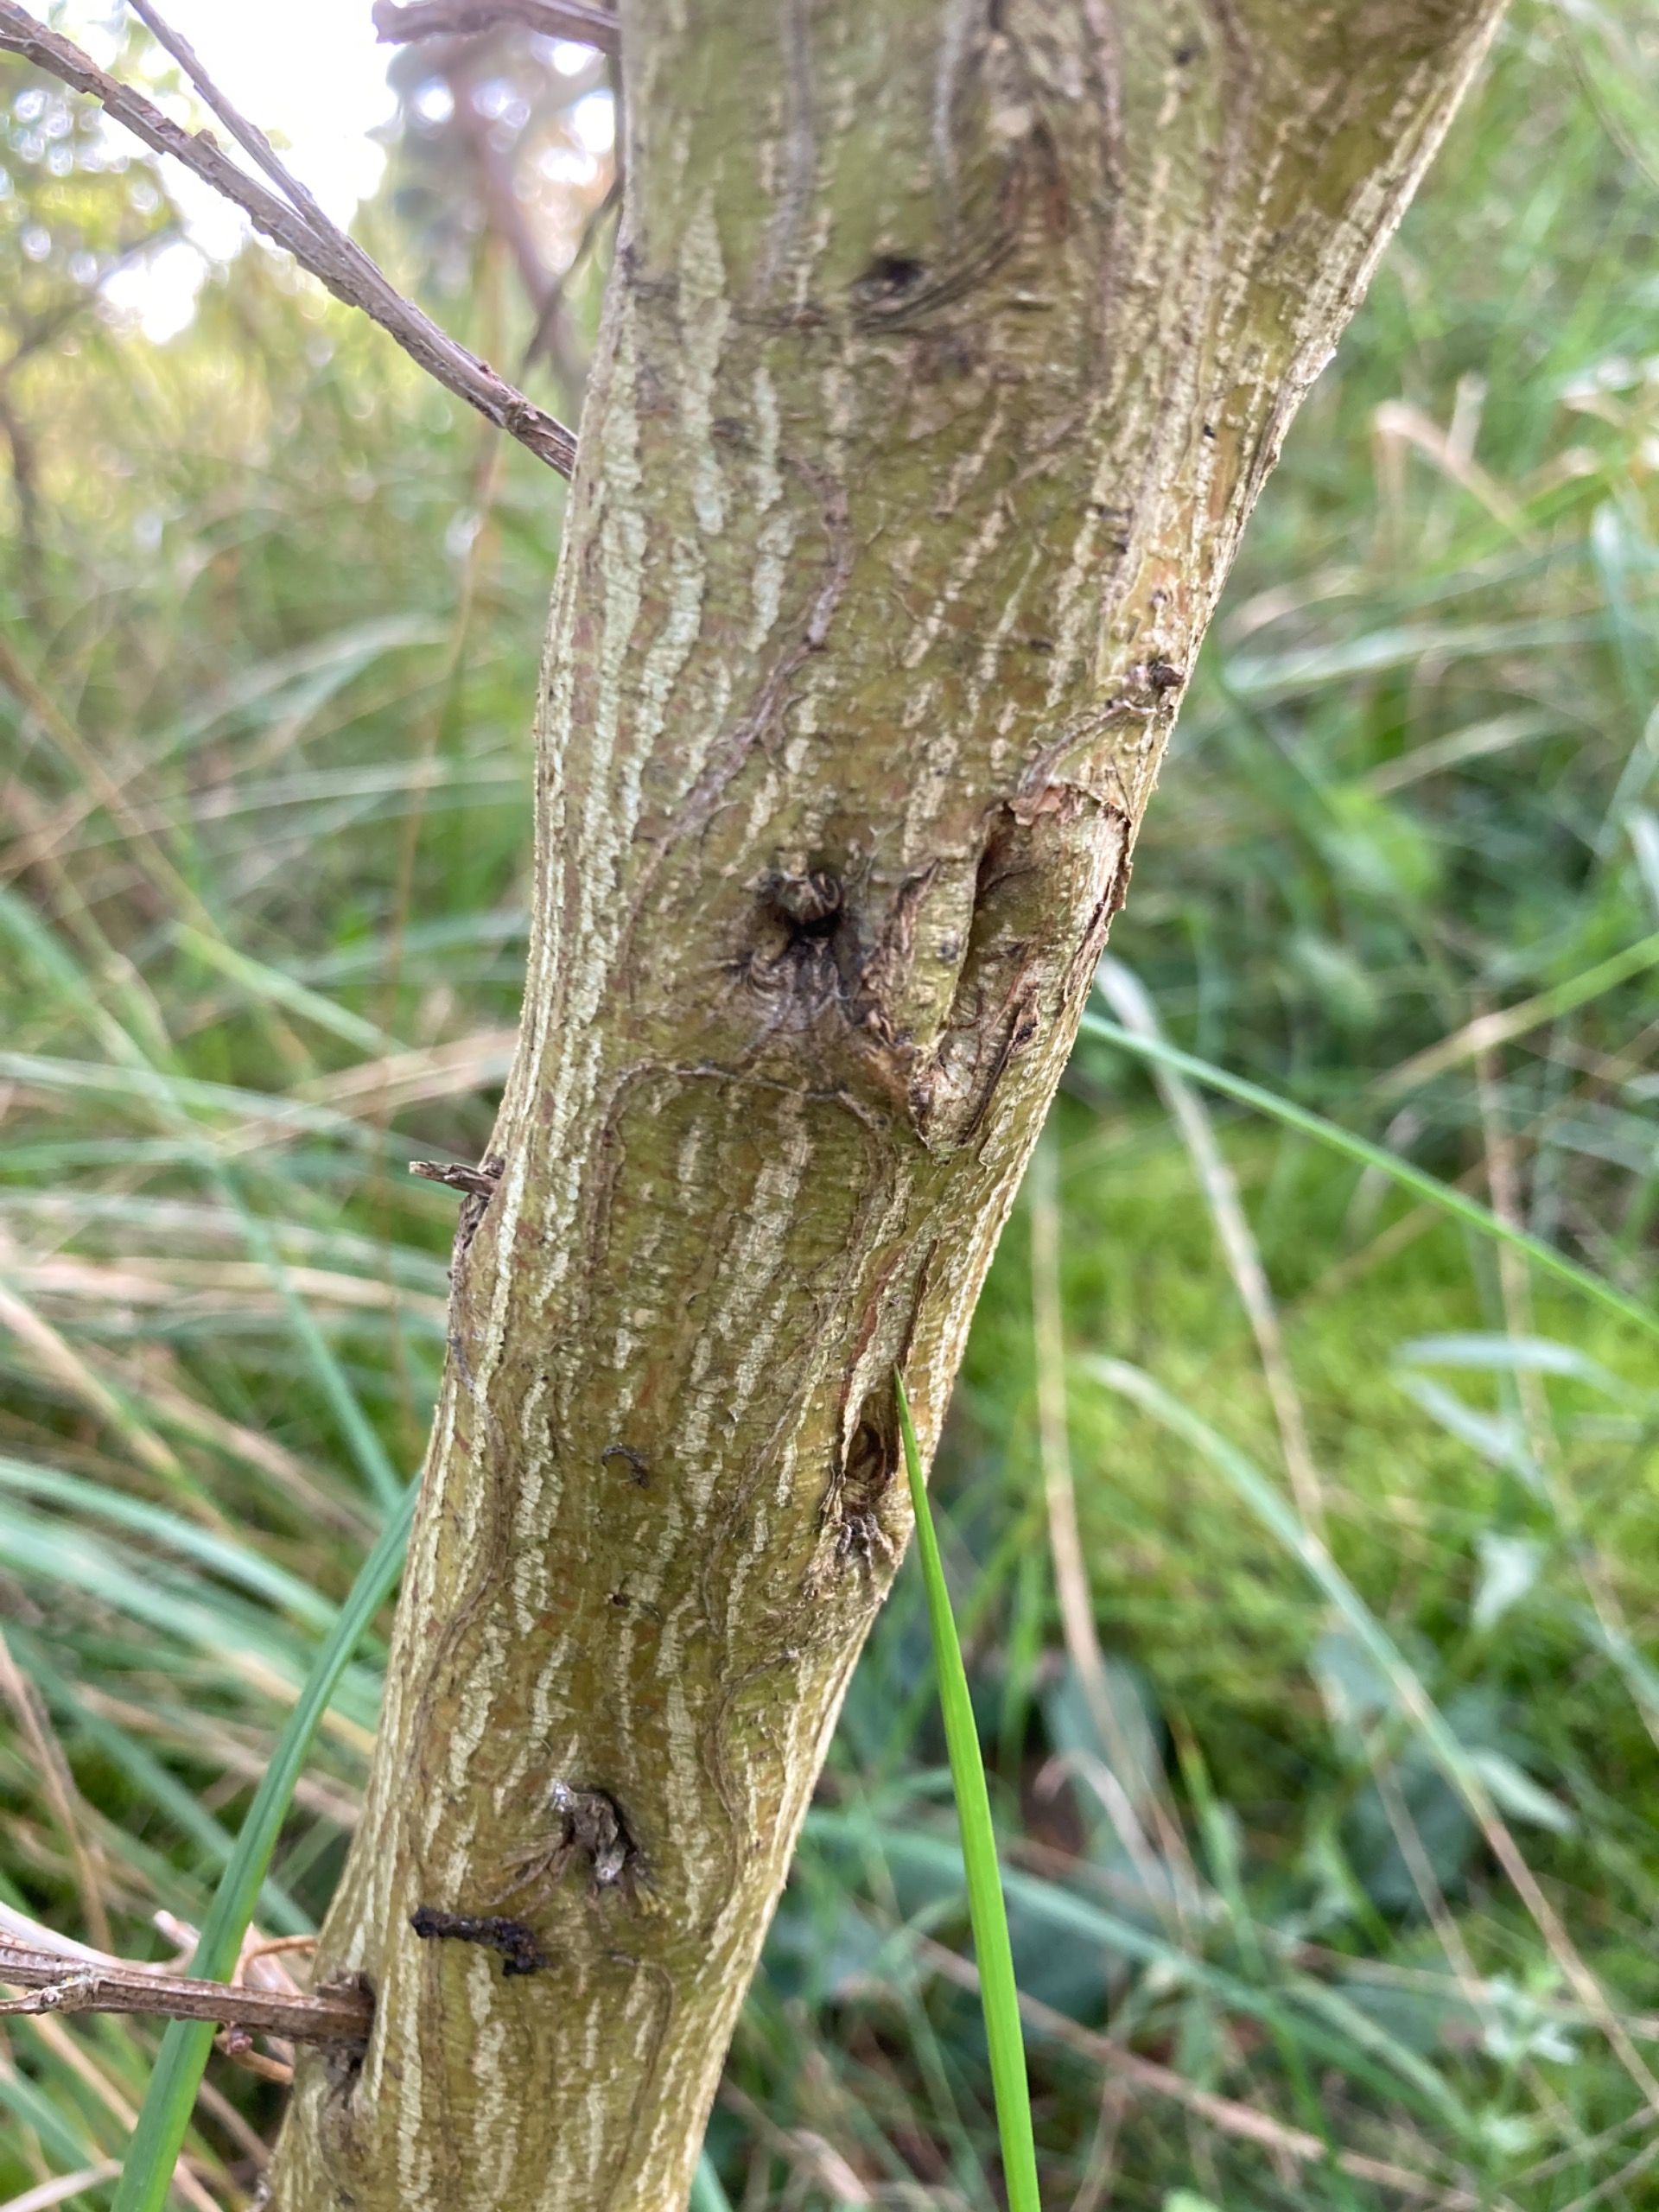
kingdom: Plantae
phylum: Tracheophyta
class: Magnoliopsida
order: Fabales
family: Fabaceae
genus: Cytisus
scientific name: Cytisus scoparius
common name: Almindelig gyvel
